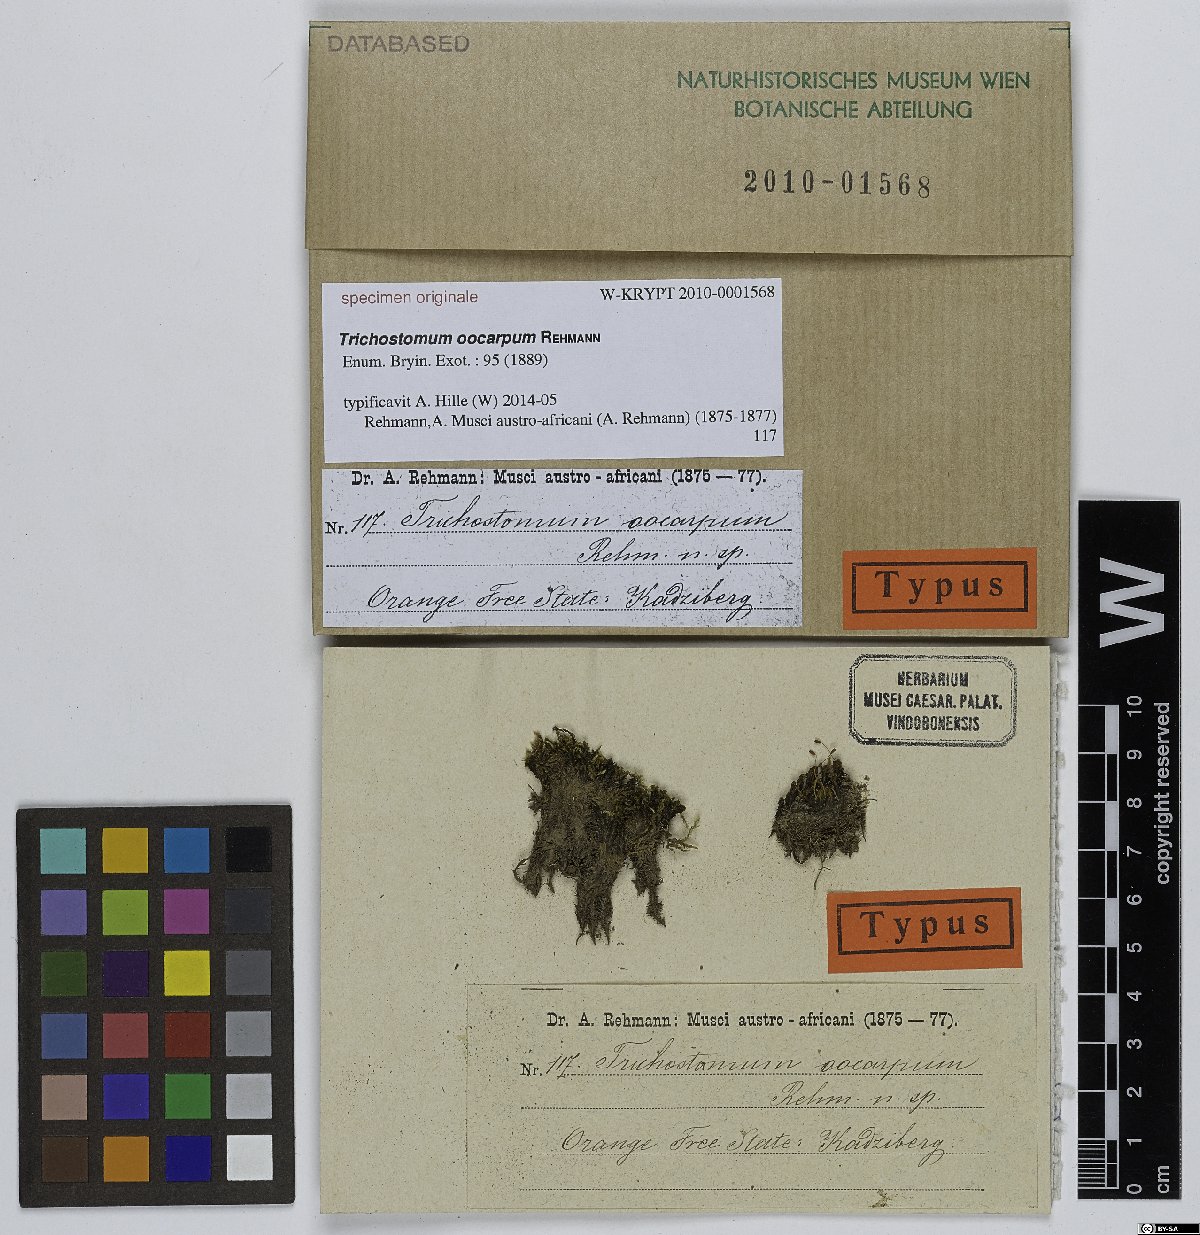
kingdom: Plantae
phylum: Bryophyta
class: Bryopsida
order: Pottiales
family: Pottiaceae
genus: Trichostomum
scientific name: Trichostomum
